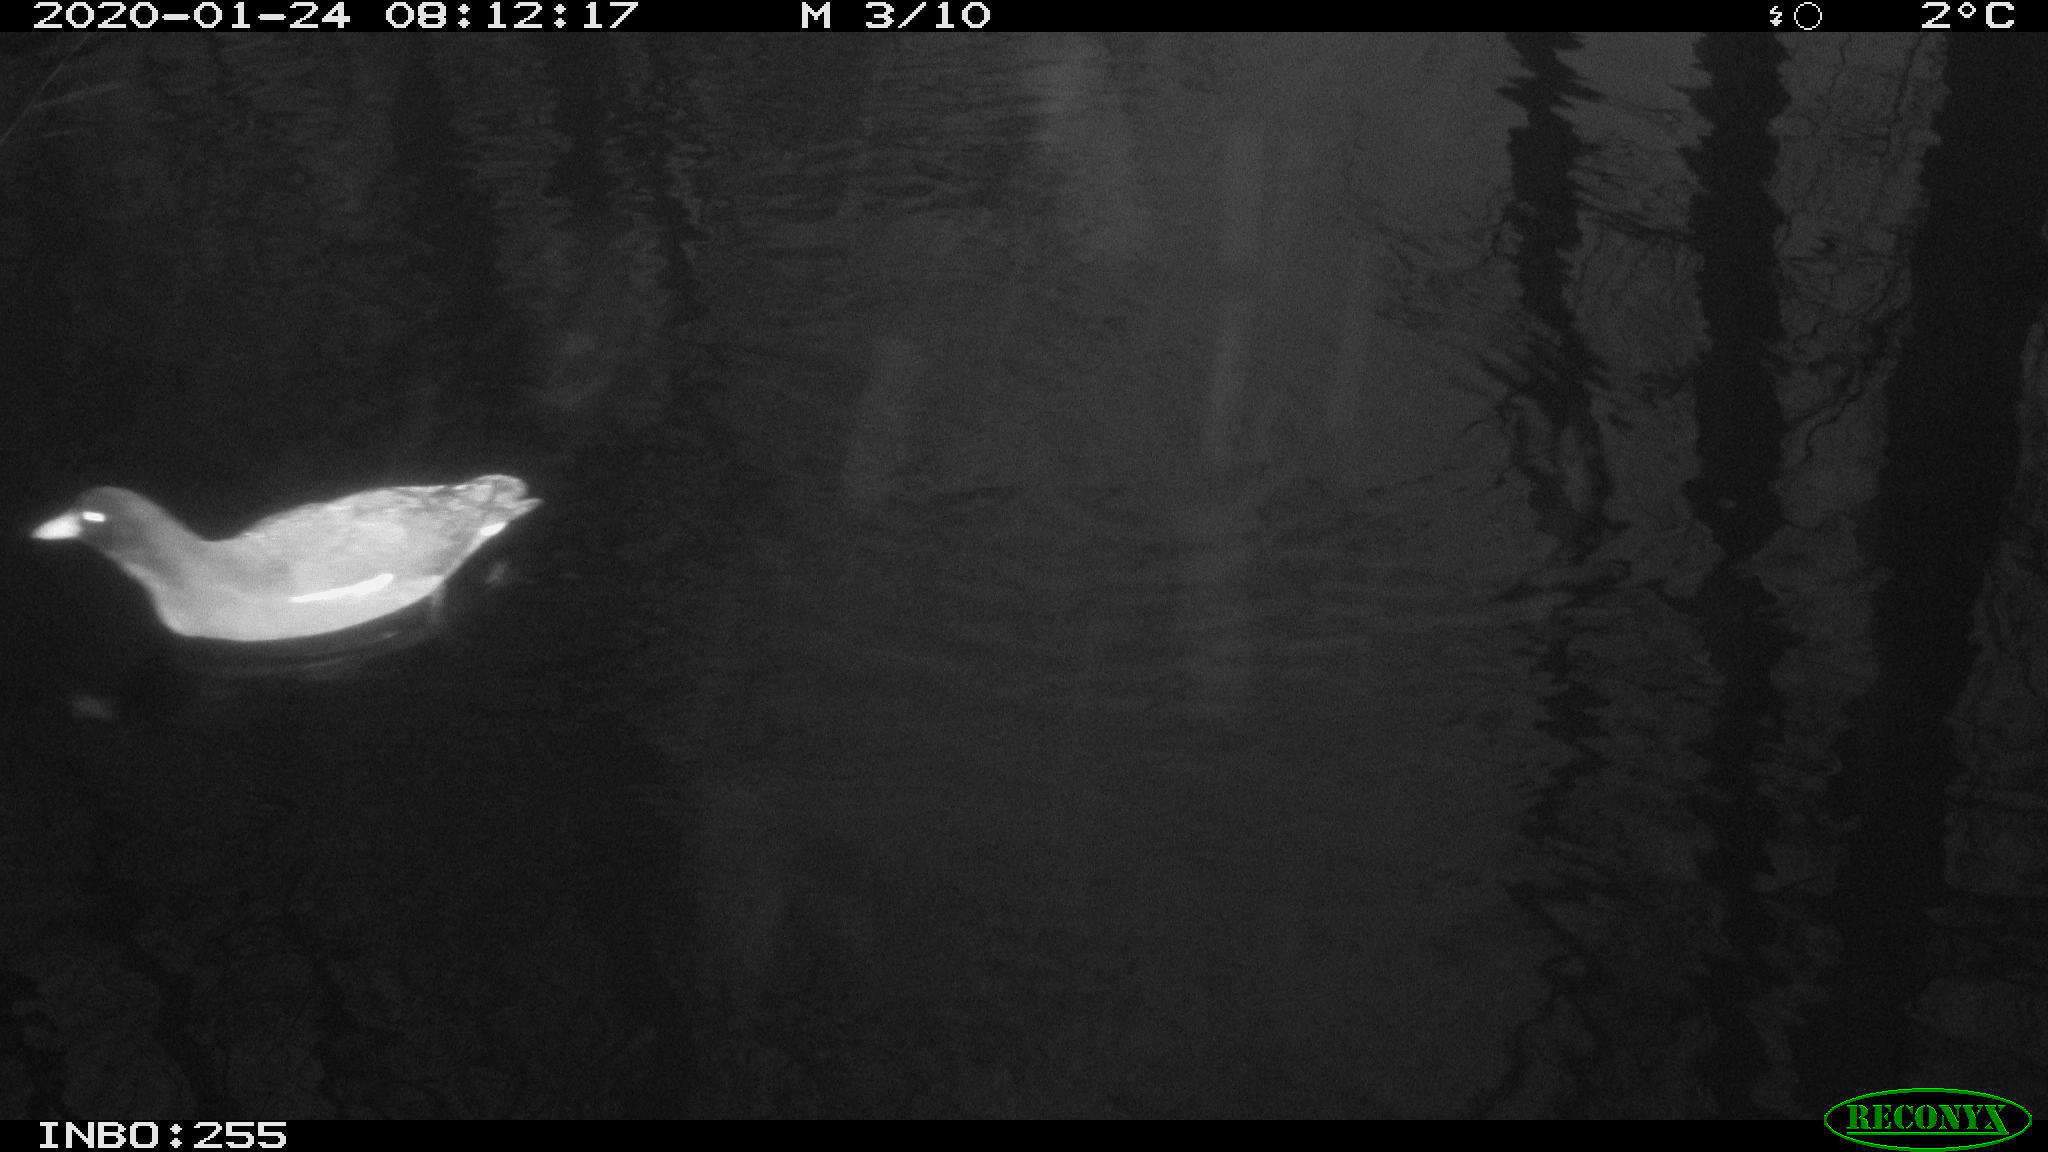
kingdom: Animalia
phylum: Chordata
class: Aves
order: Gruiformes
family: Rallidae
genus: Gallinula
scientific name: Gallinula chloropus
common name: Common moorhen
